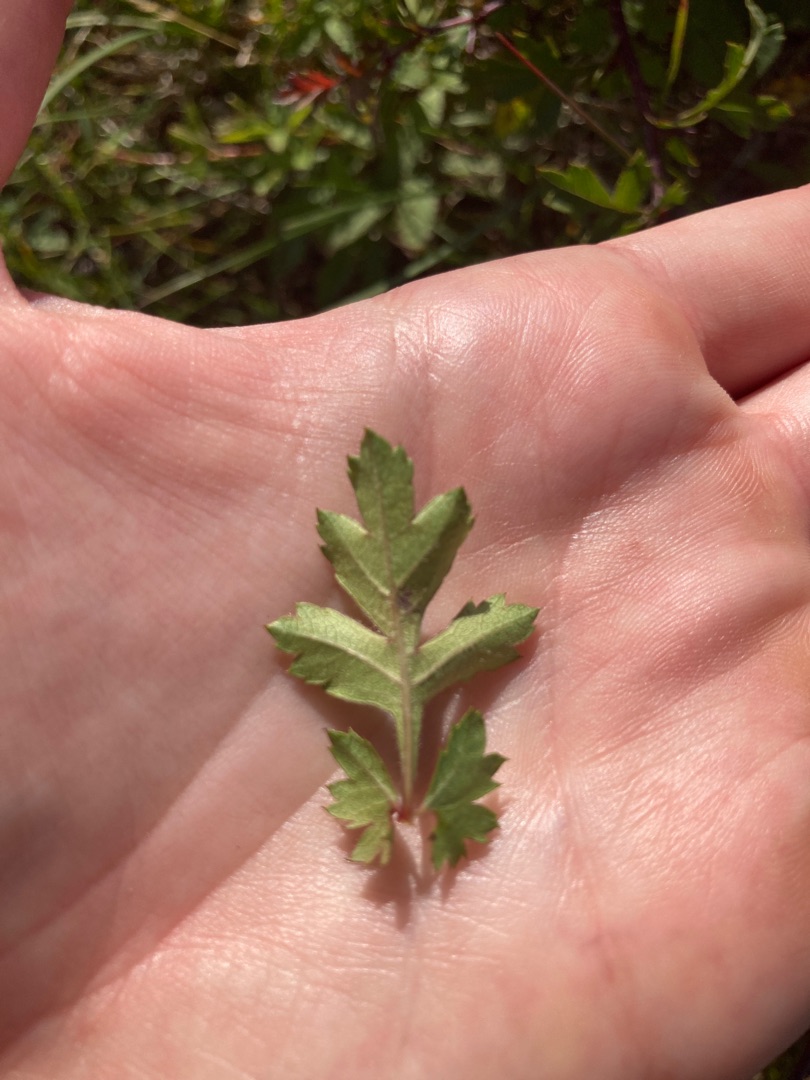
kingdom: Plantae
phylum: Tracheophyta
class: Magnoliopsida
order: Rosales
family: Rosaceae
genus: Crataegus
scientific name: Crataegus monogyna
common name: Engriflet hvidtjørn
